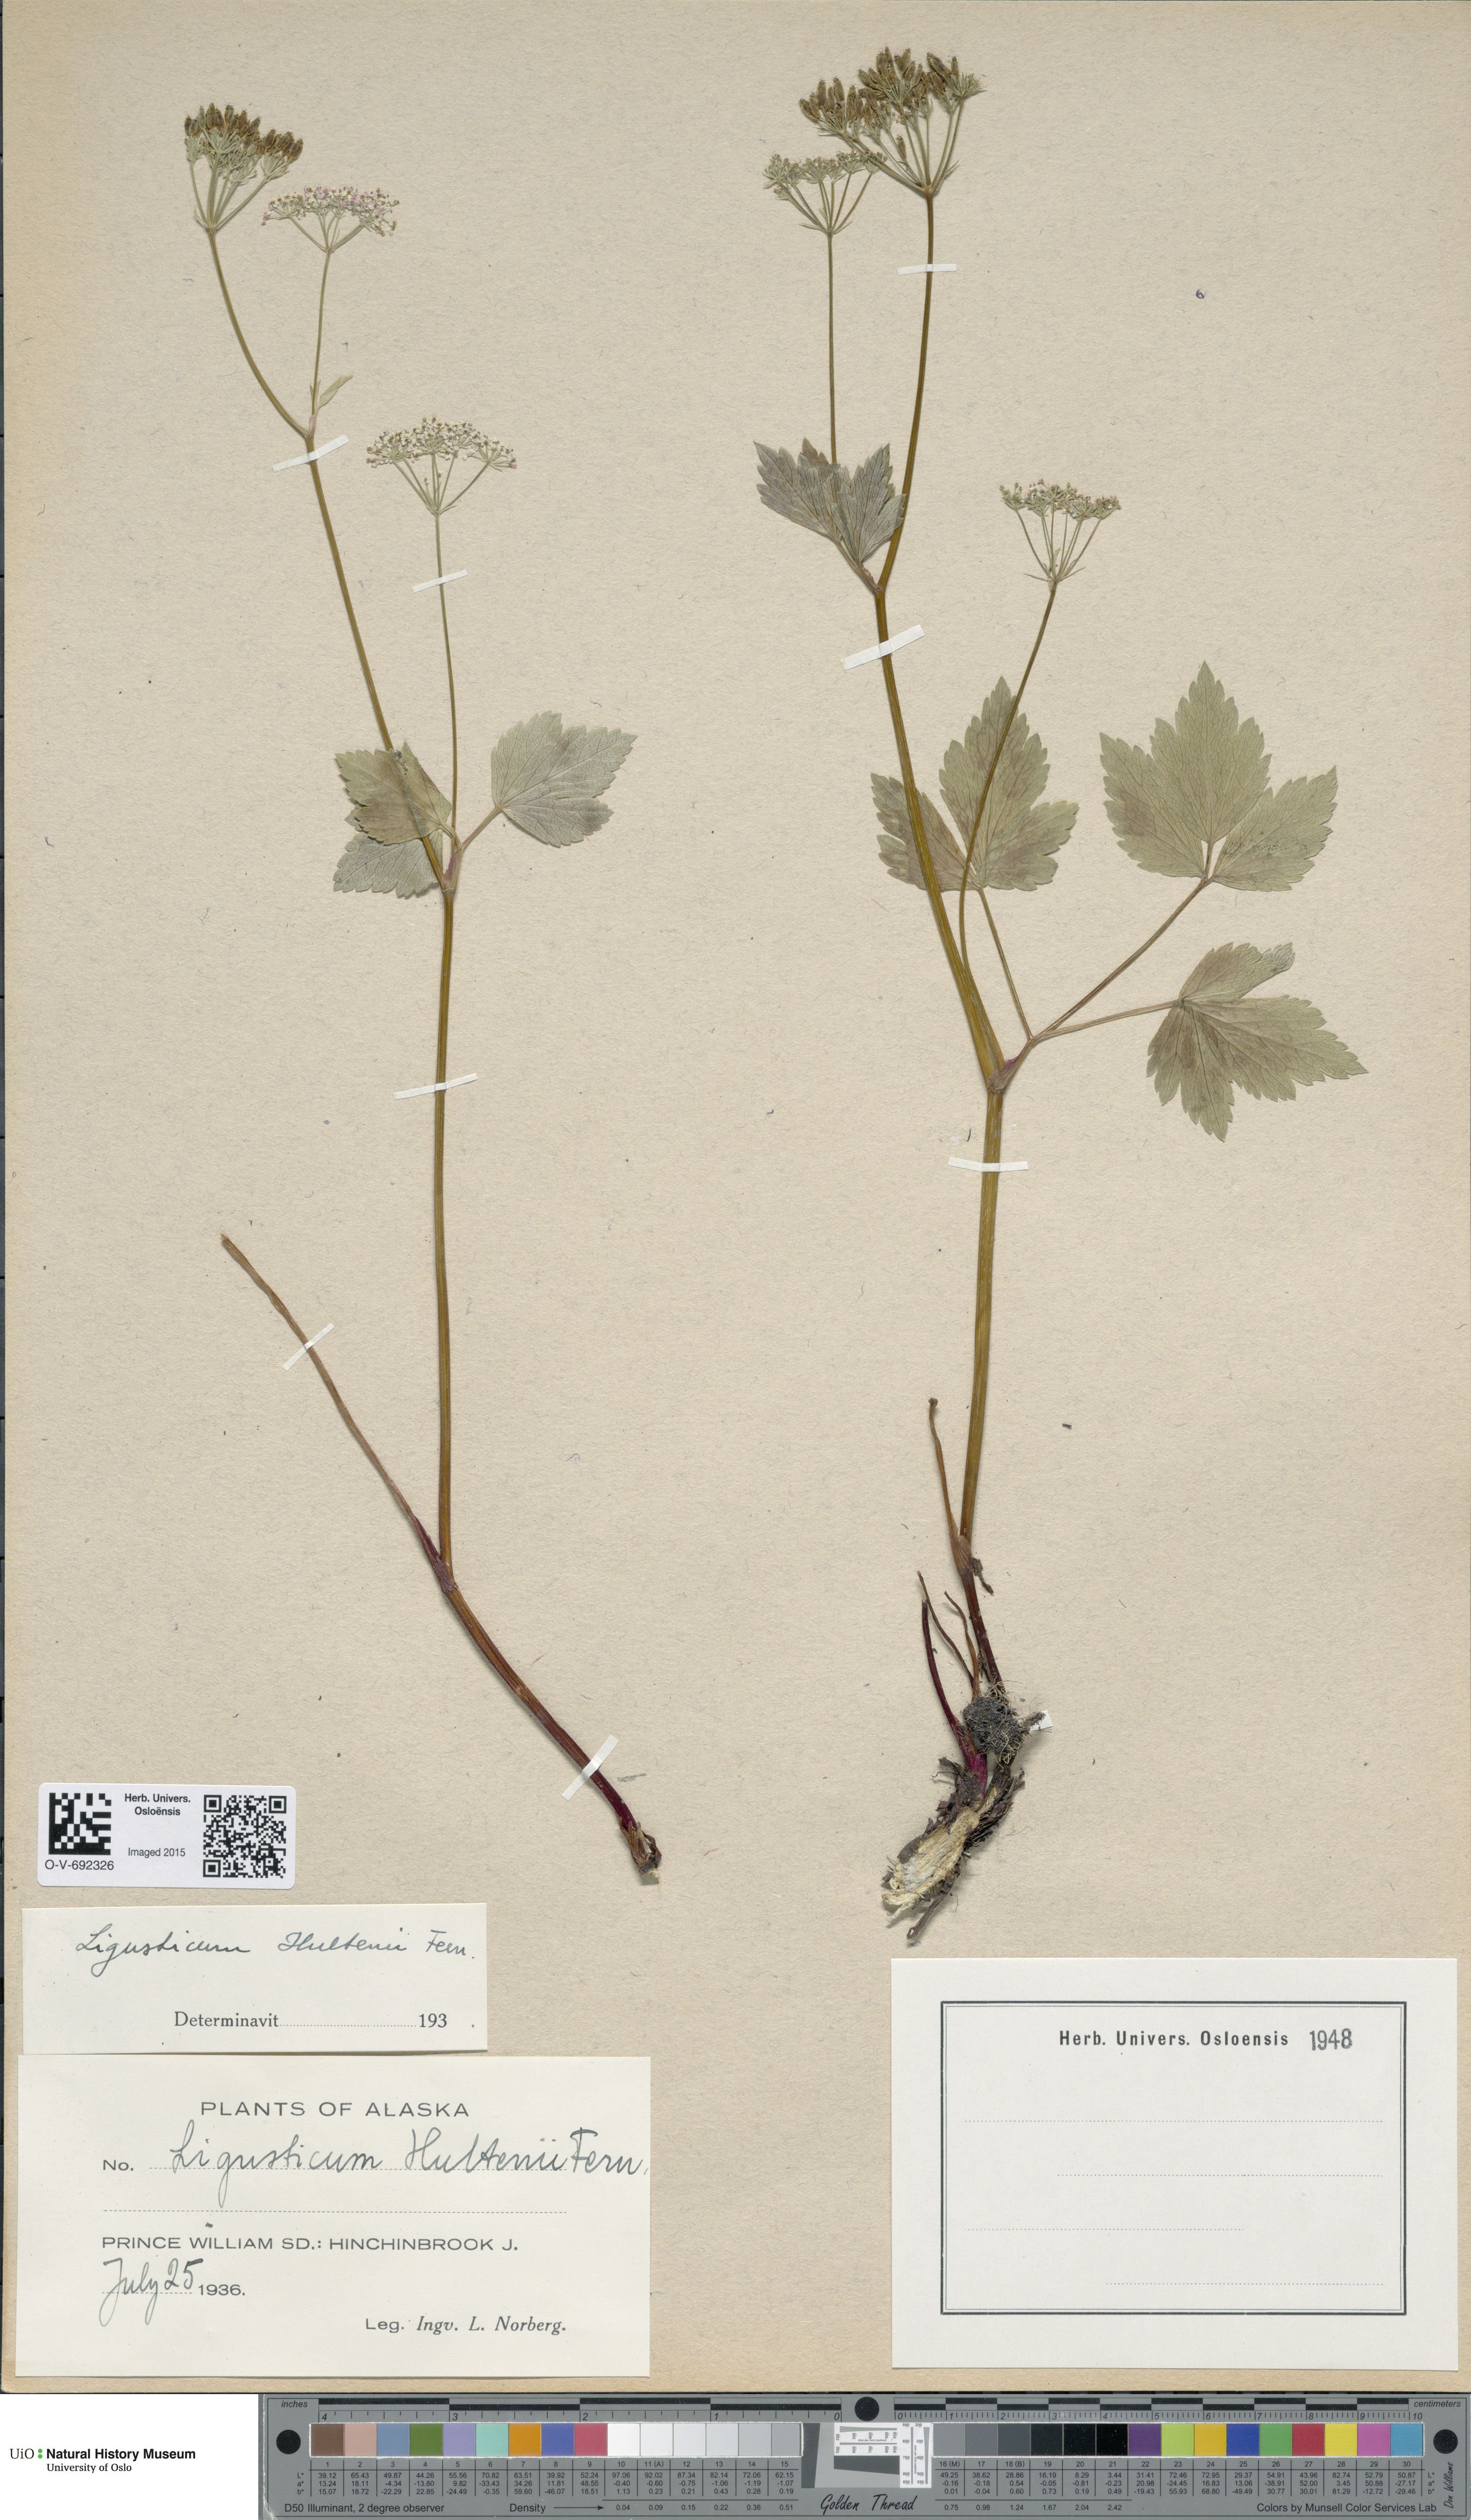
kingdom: Plantae
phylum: Tracheophyta
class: Magnoliopsida
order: Apiales
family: Apiaceae
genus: Ligusticum
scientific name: Ligusticum scothicum
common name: Beach lovage
